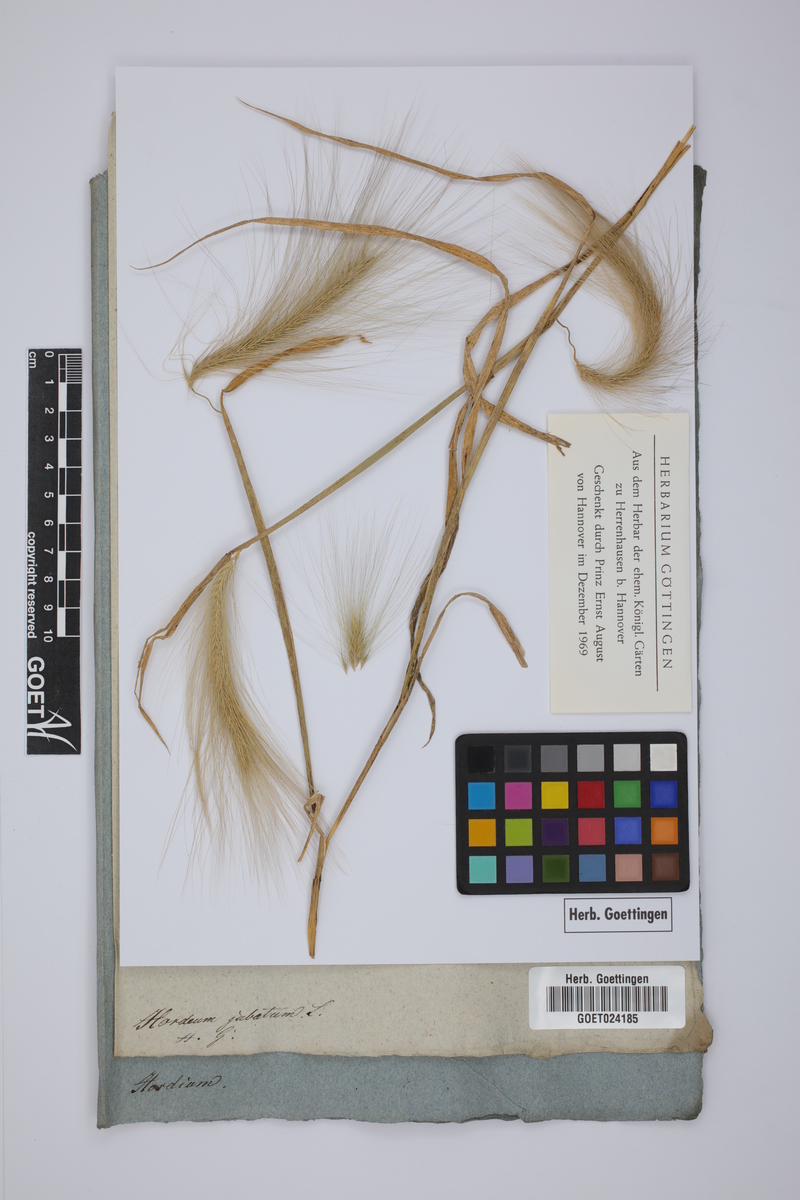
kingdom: Plantae
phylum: Tracheophyta
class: Liliopsida
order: Poales
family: Poaceae
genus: Hordeum
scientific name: Hordeum jubatum
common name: Foxtail barley
